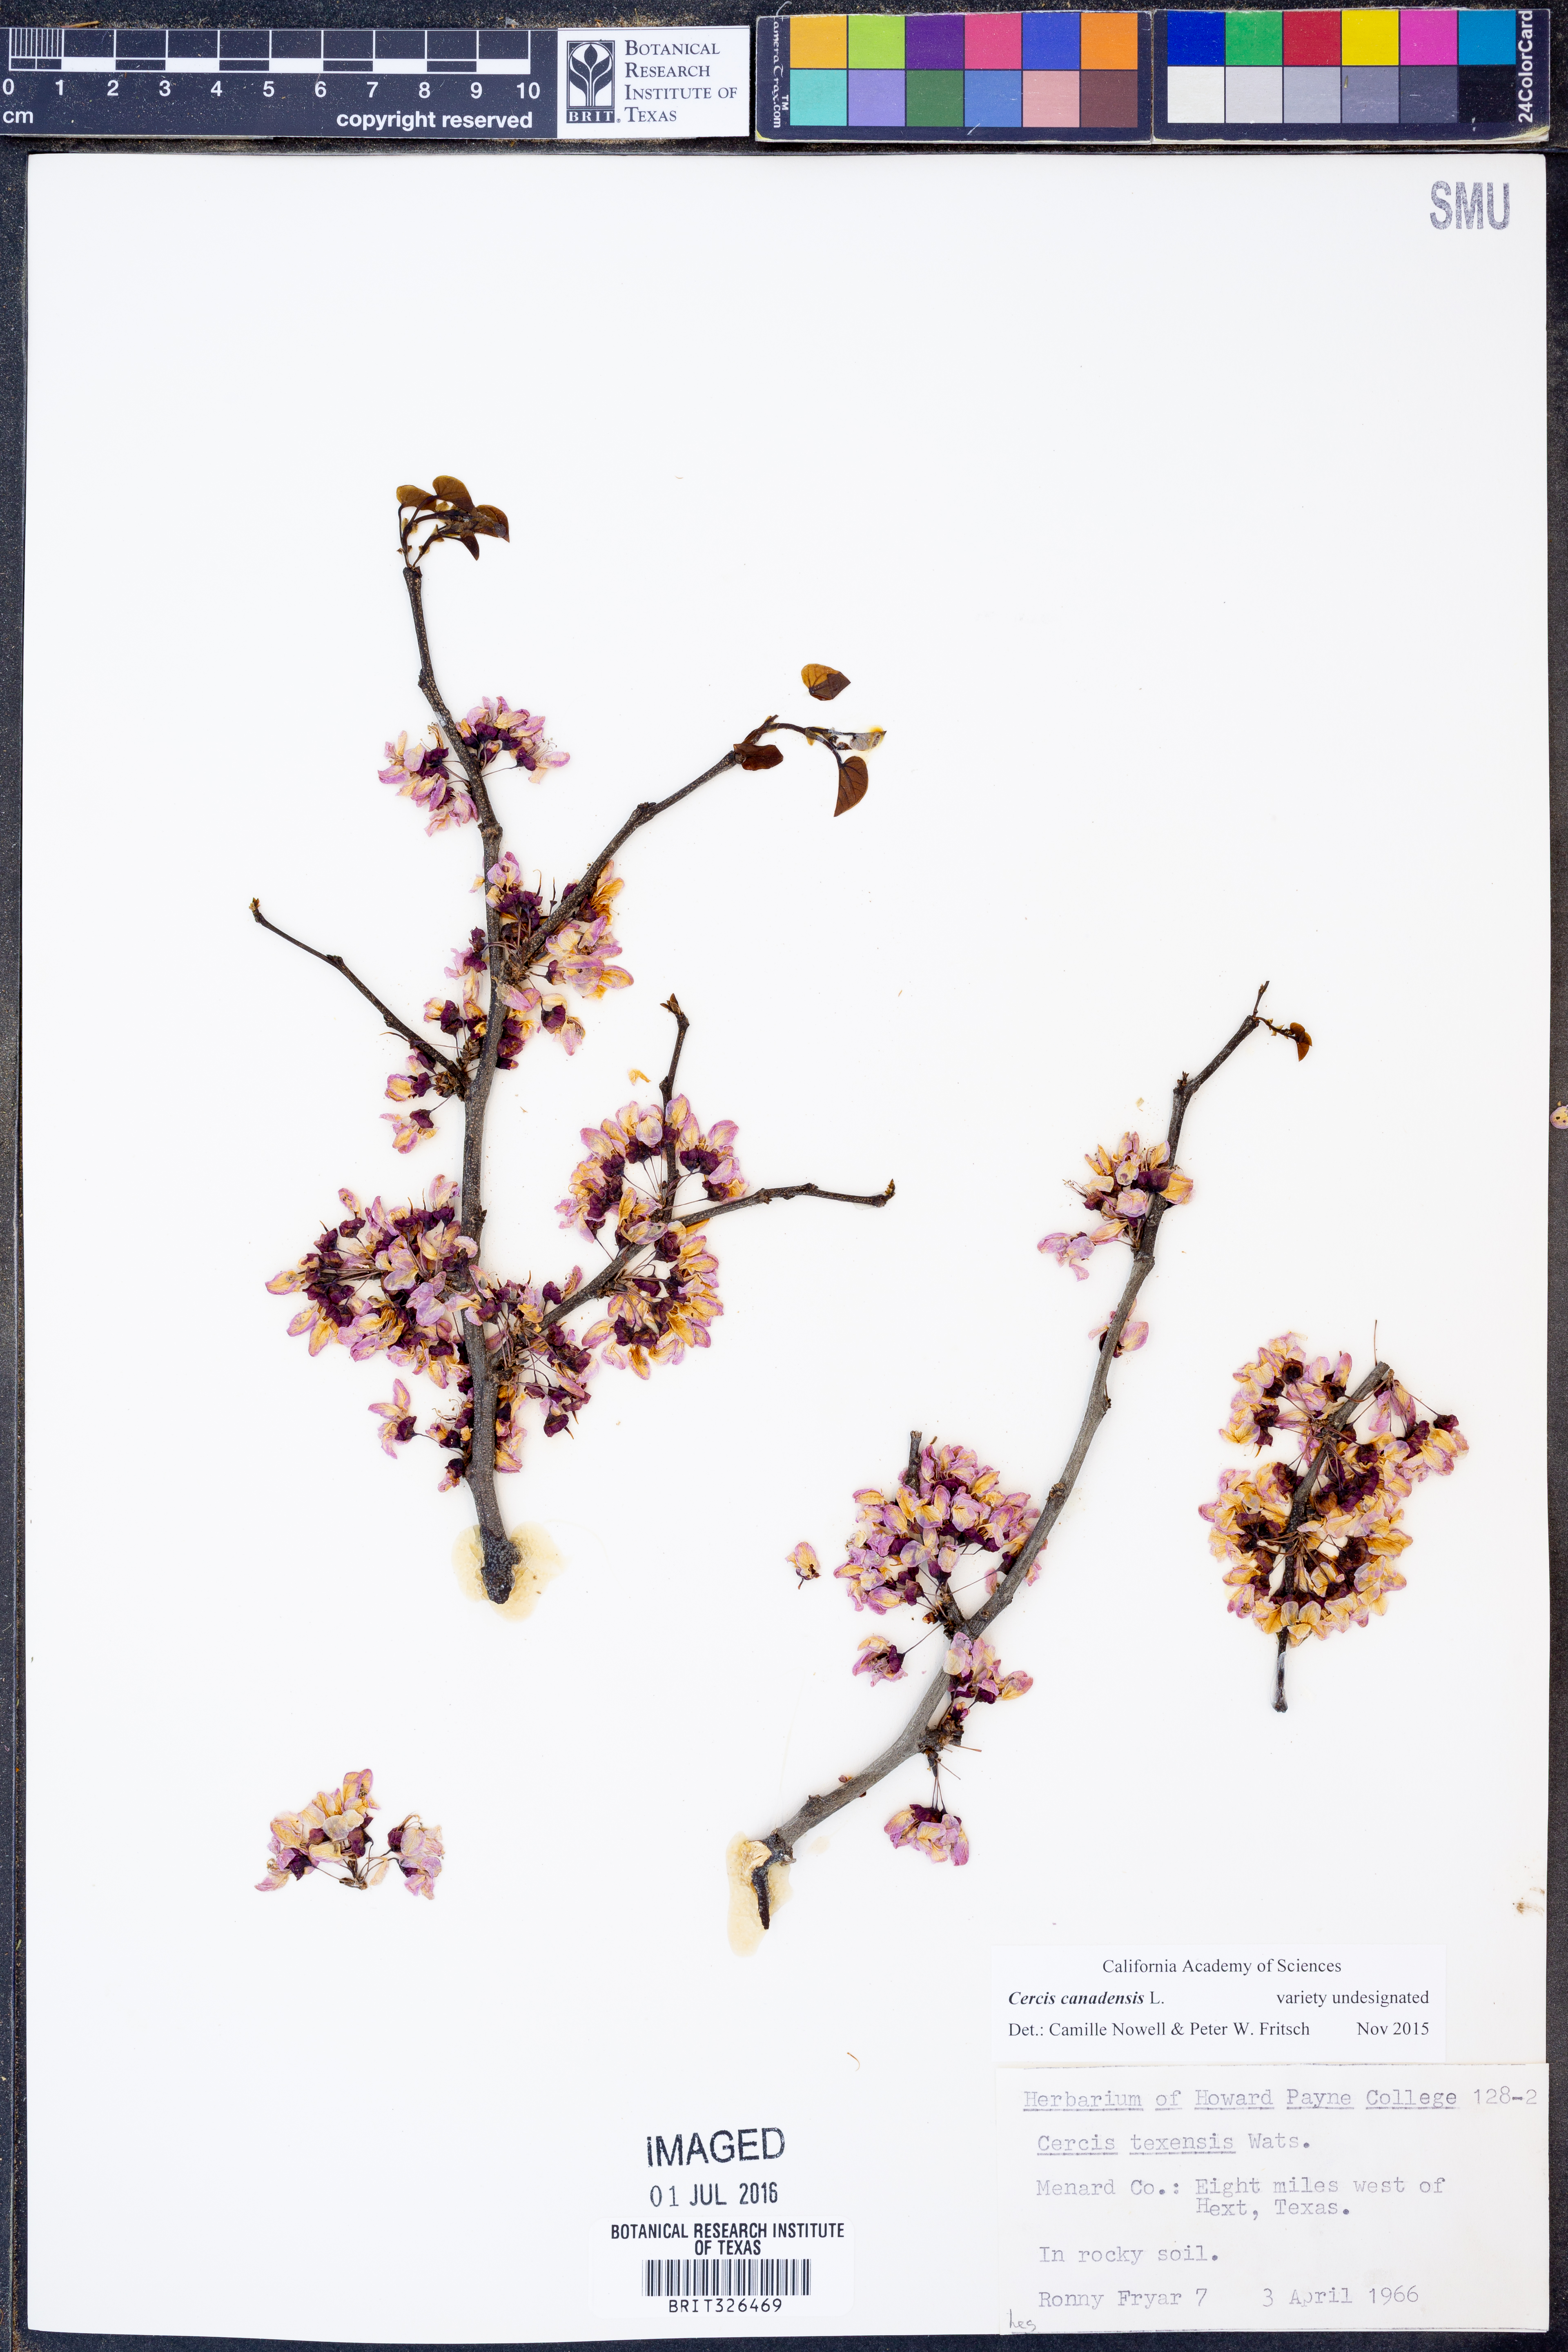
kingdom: Plantae
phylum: Tracheophyta
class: Magnoliopsida
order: Fabales
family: Fabaceae
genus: Cercis
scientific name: Cercis canadensis
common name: Eastern redbud
